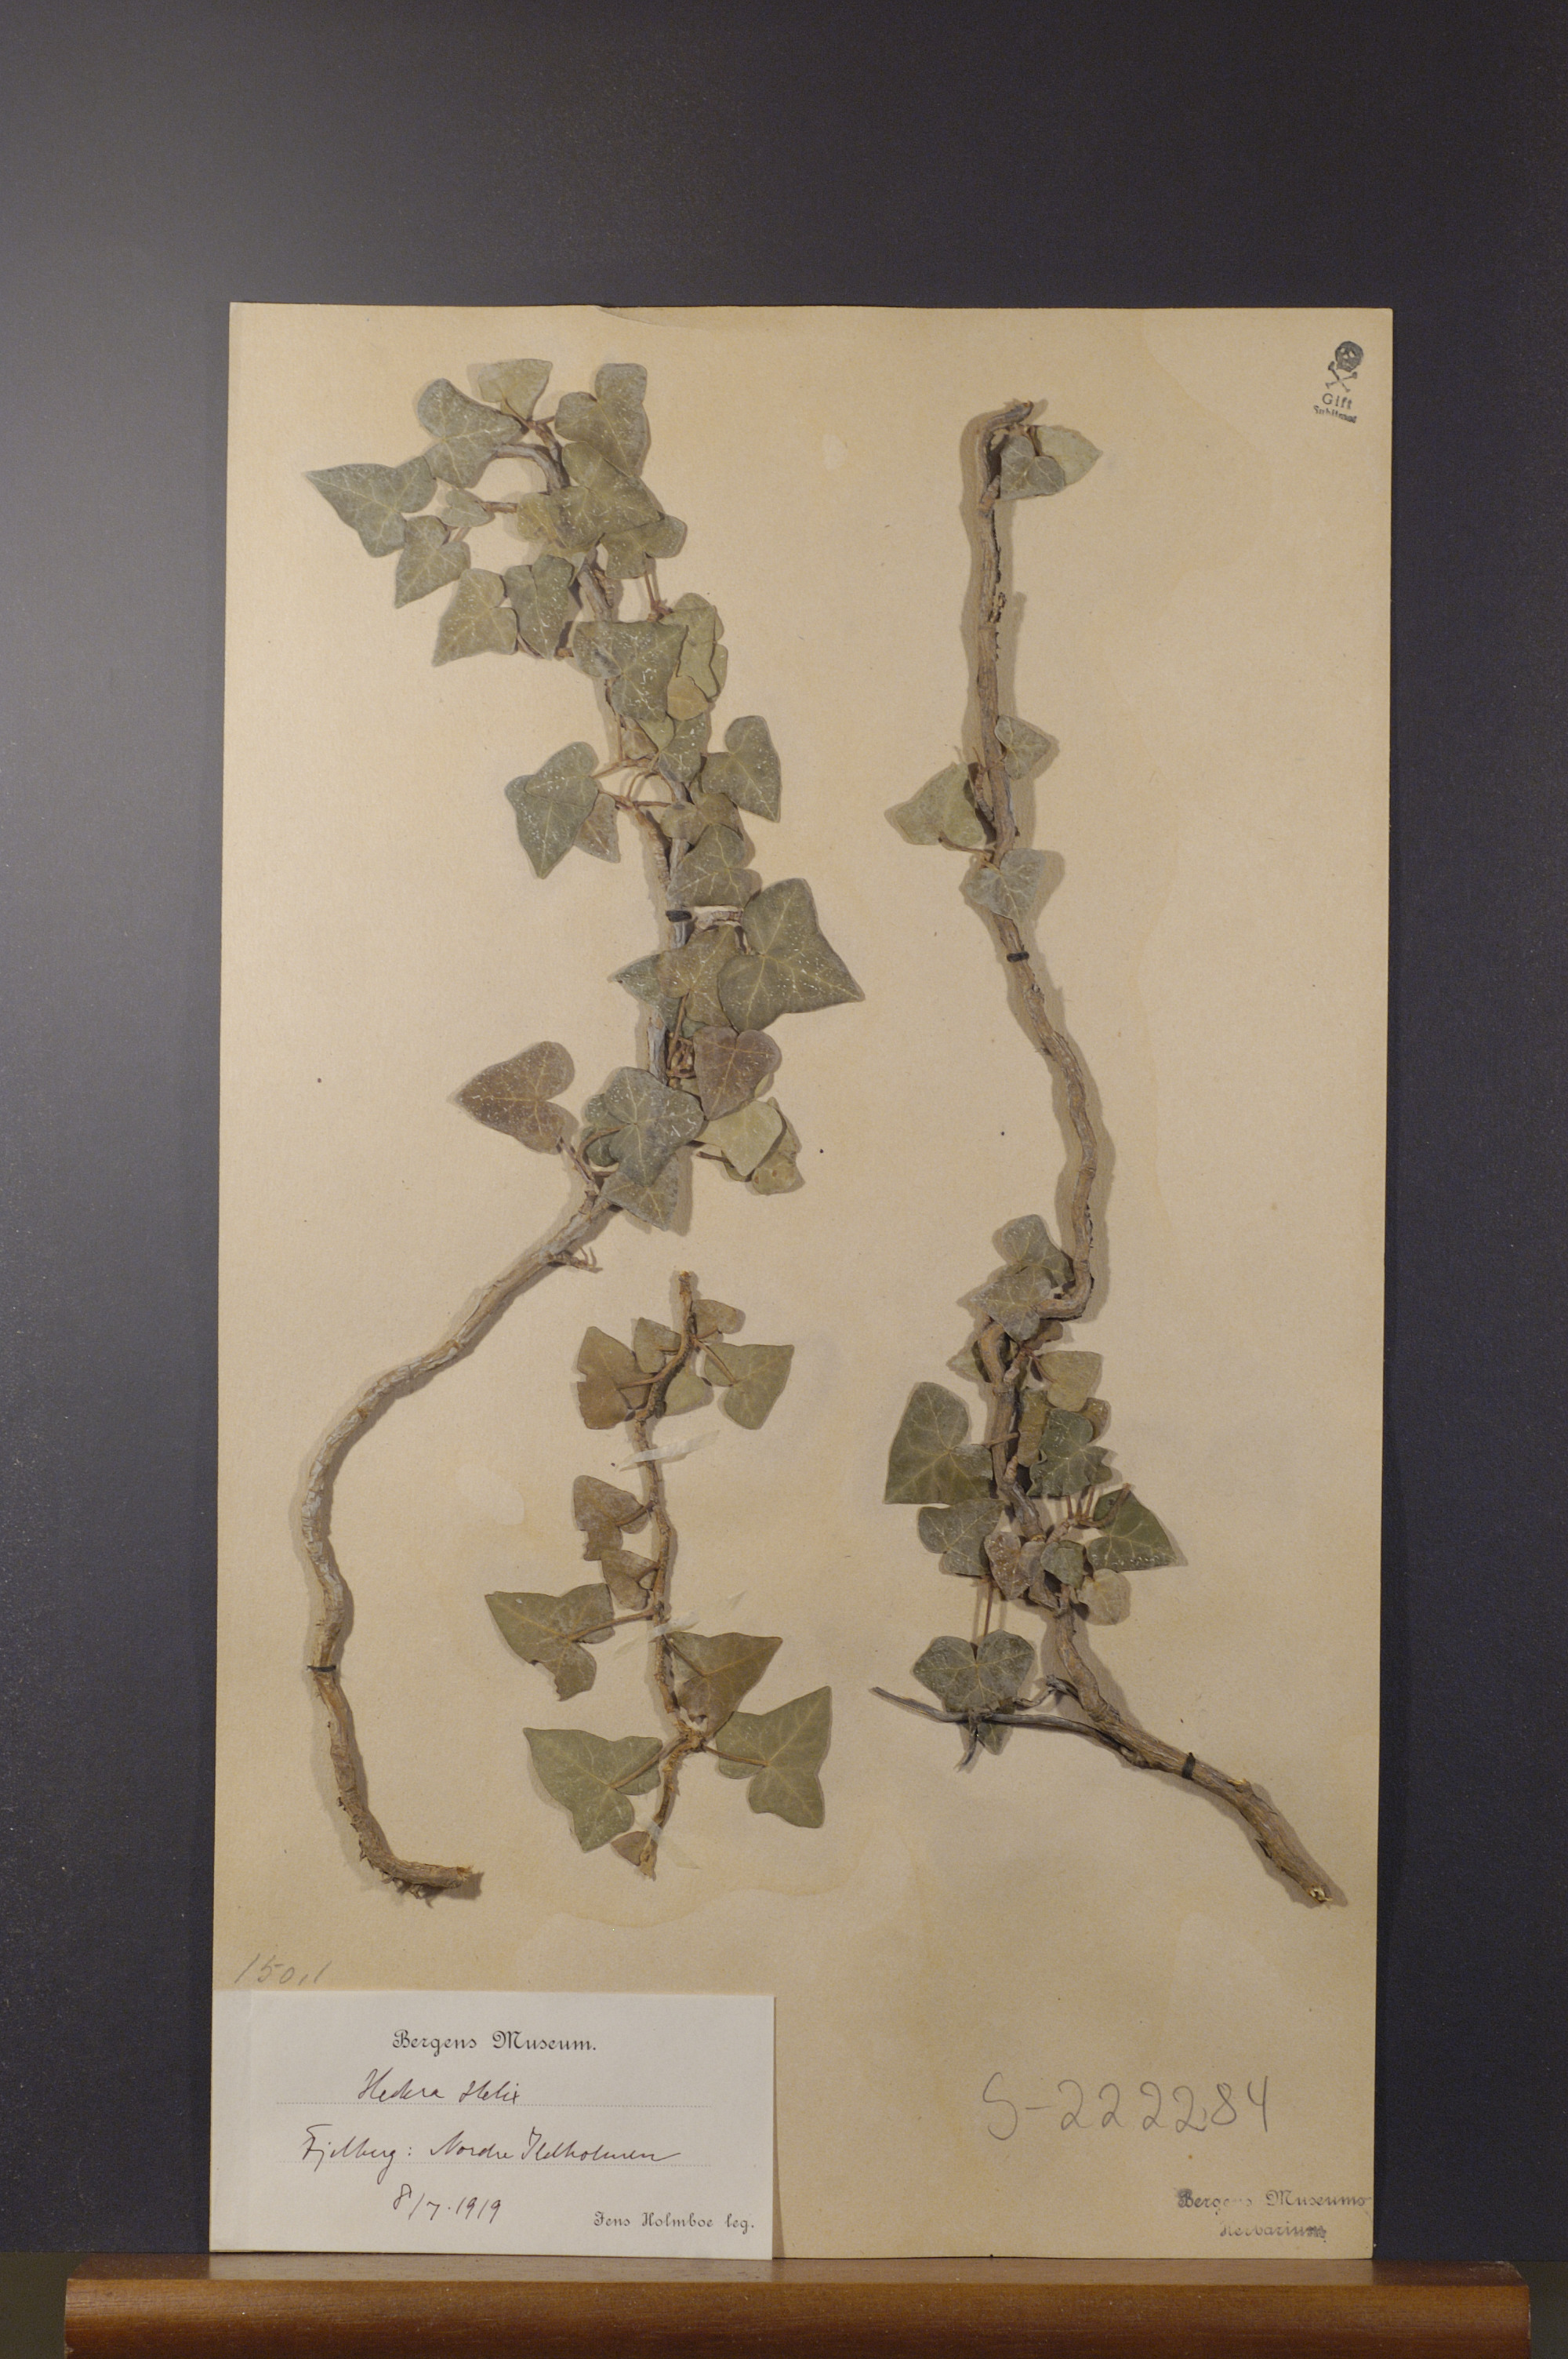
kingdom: Plantae
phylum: Tracheophyta
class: Magnoliopsida
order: Apiales
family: Araliaceae
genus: Hedera
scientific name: Hedera helix
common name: Ivy
